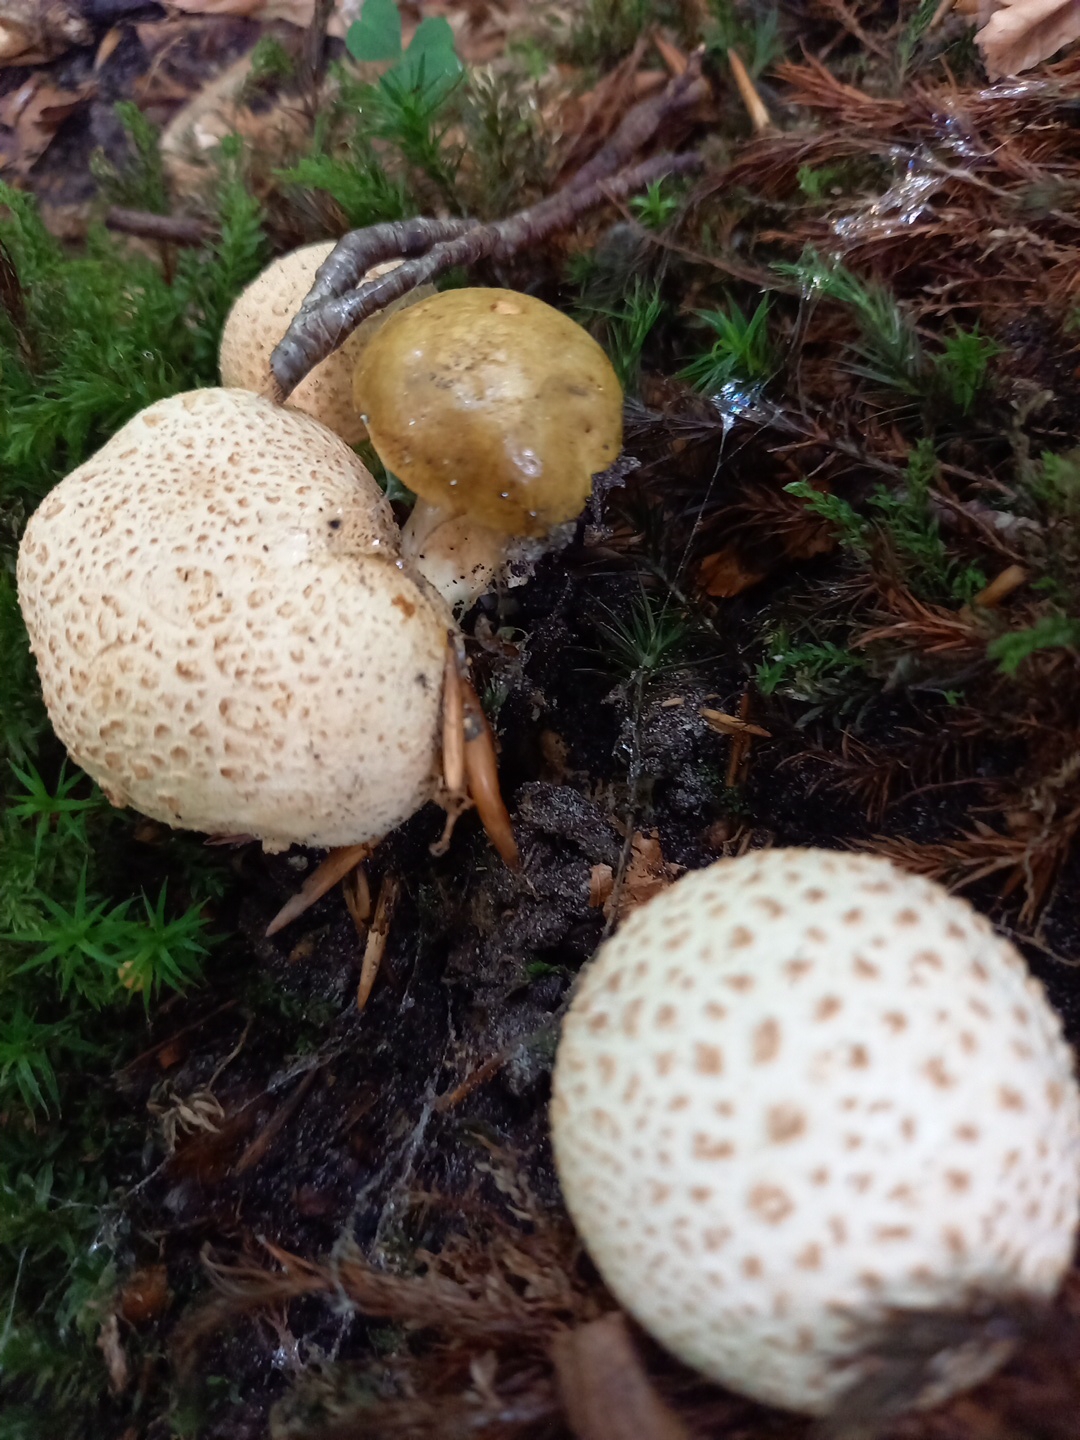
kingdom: Fungi
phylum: Basidiomycota
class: Agaricomycetes
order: Boletales
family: Sclerodermataceae
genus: Scleroderma
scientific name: Scleroderma citrinum
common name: almindelig bruskbold
